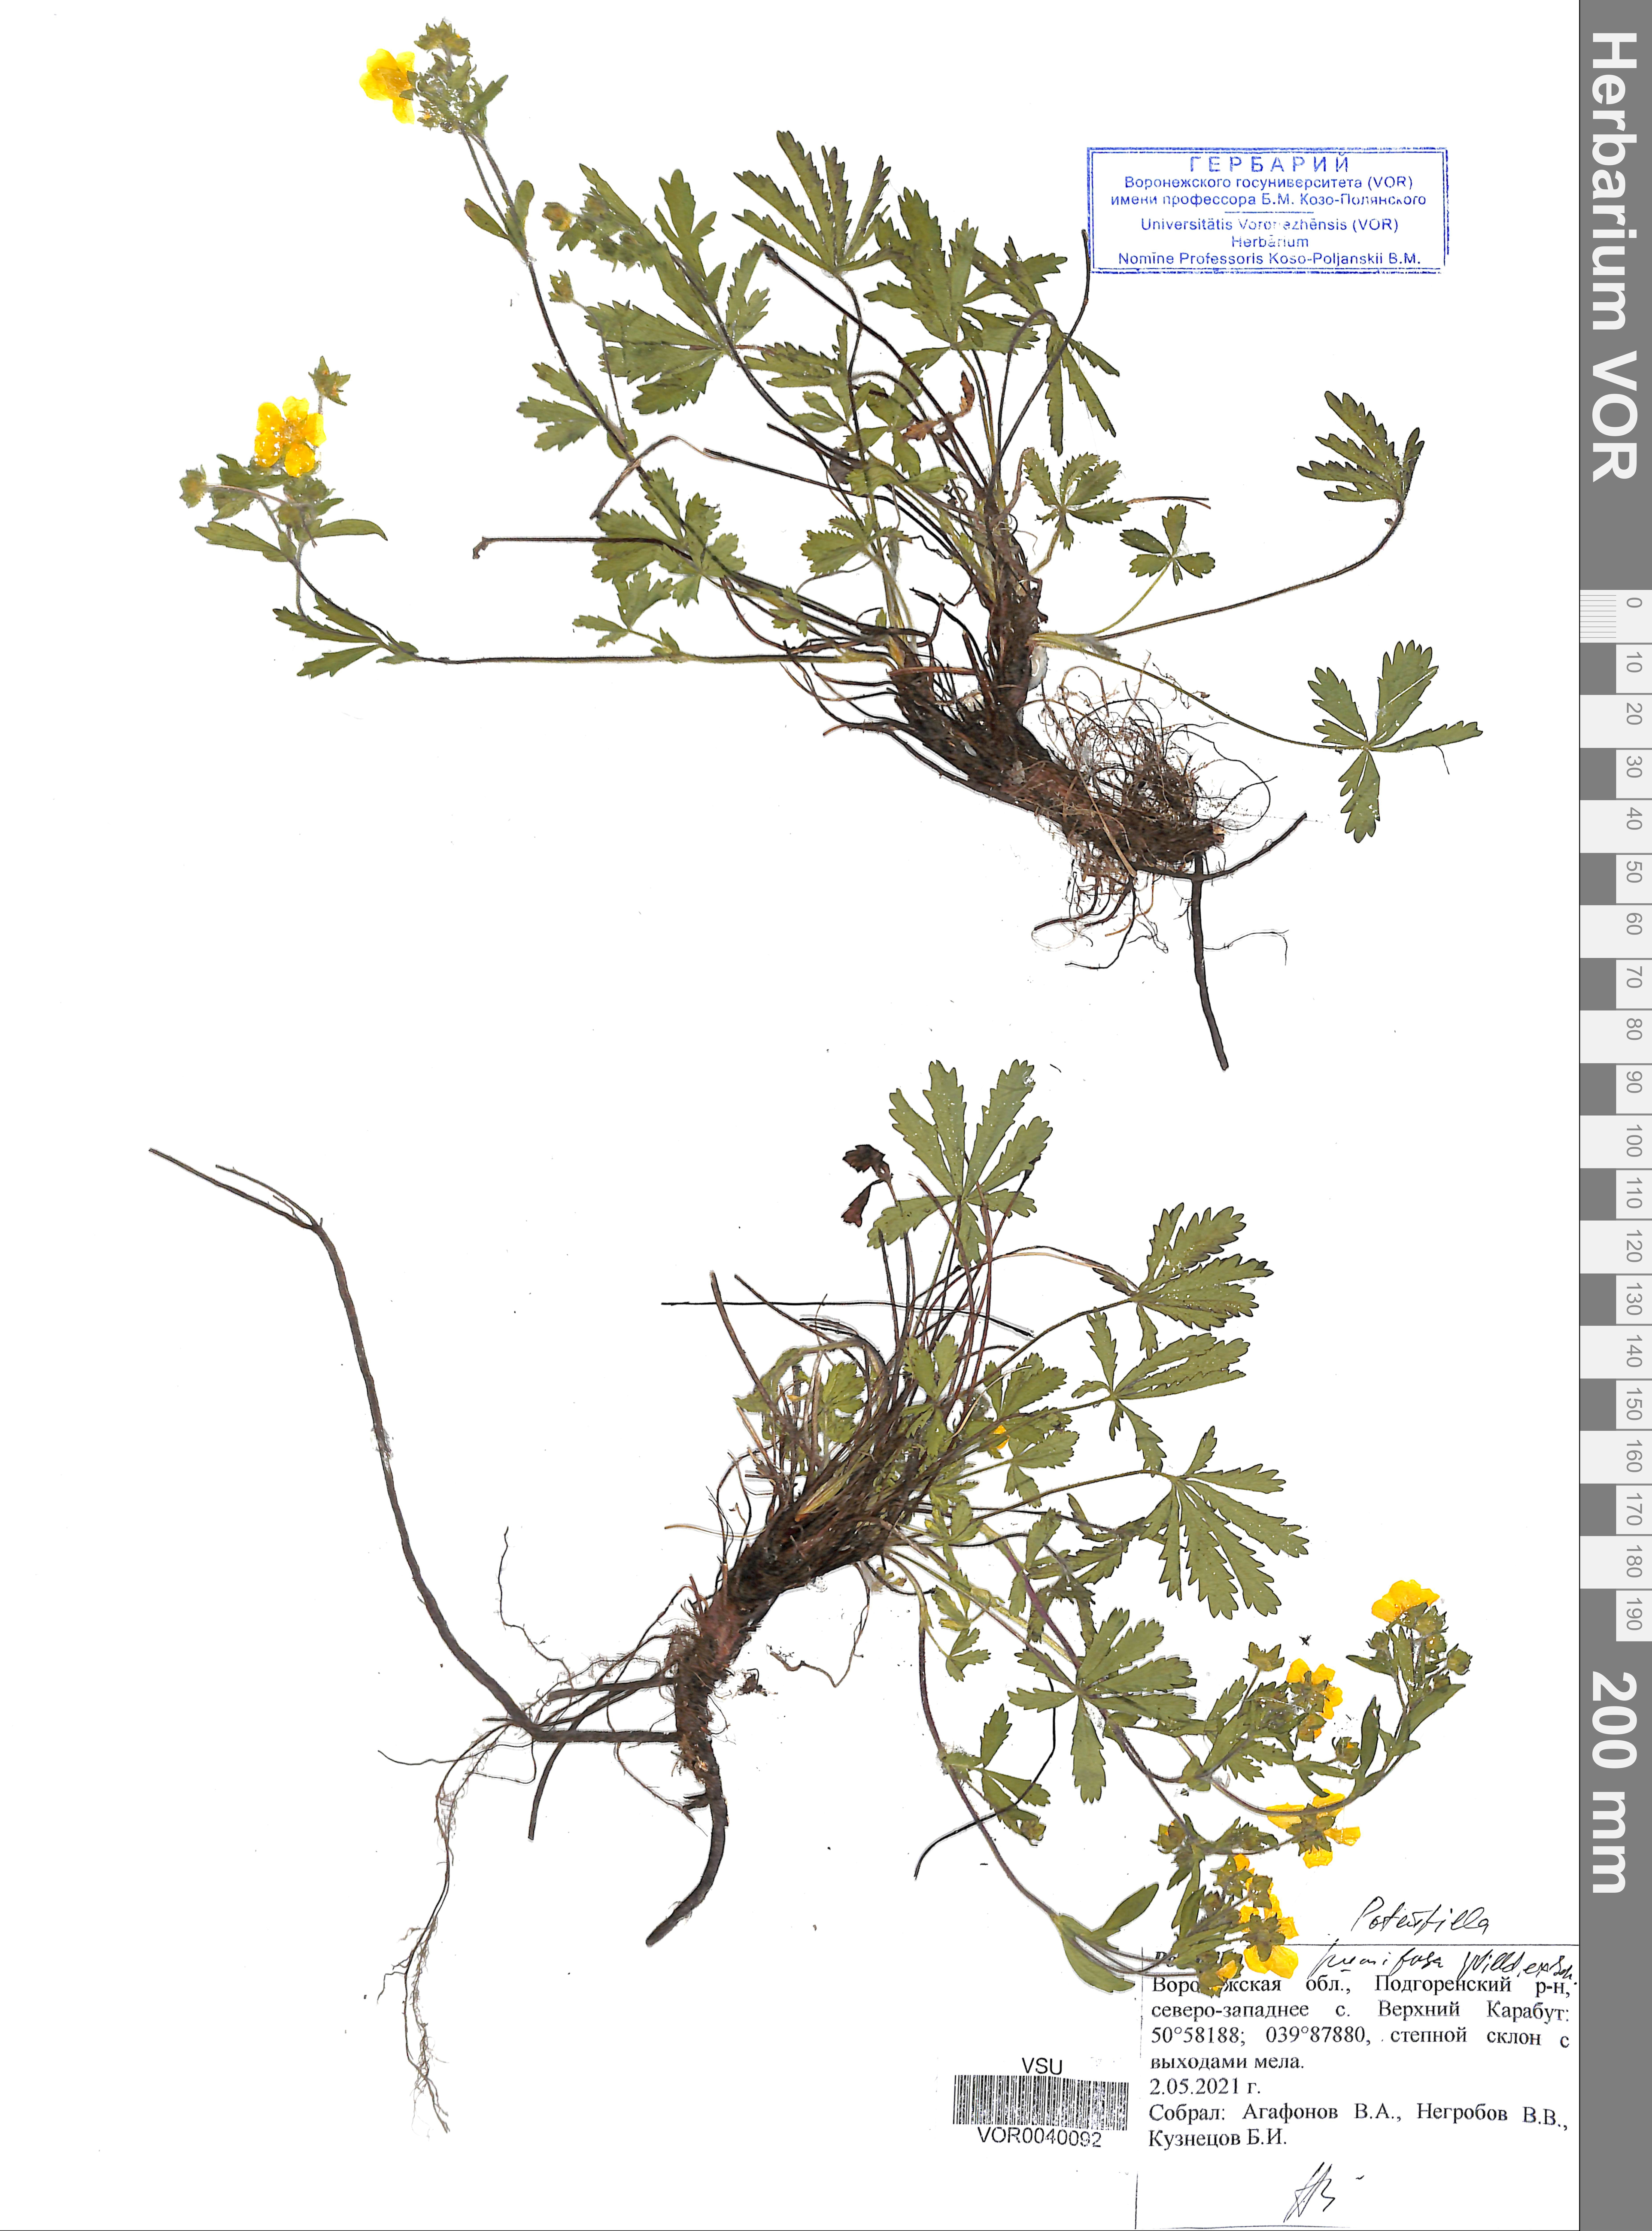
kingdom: Plantae
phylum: Tracheophyta
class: Magnoliopsida
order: Rosales
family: Rosaceae
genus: Potentilla
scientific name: Potentilla humifusa
